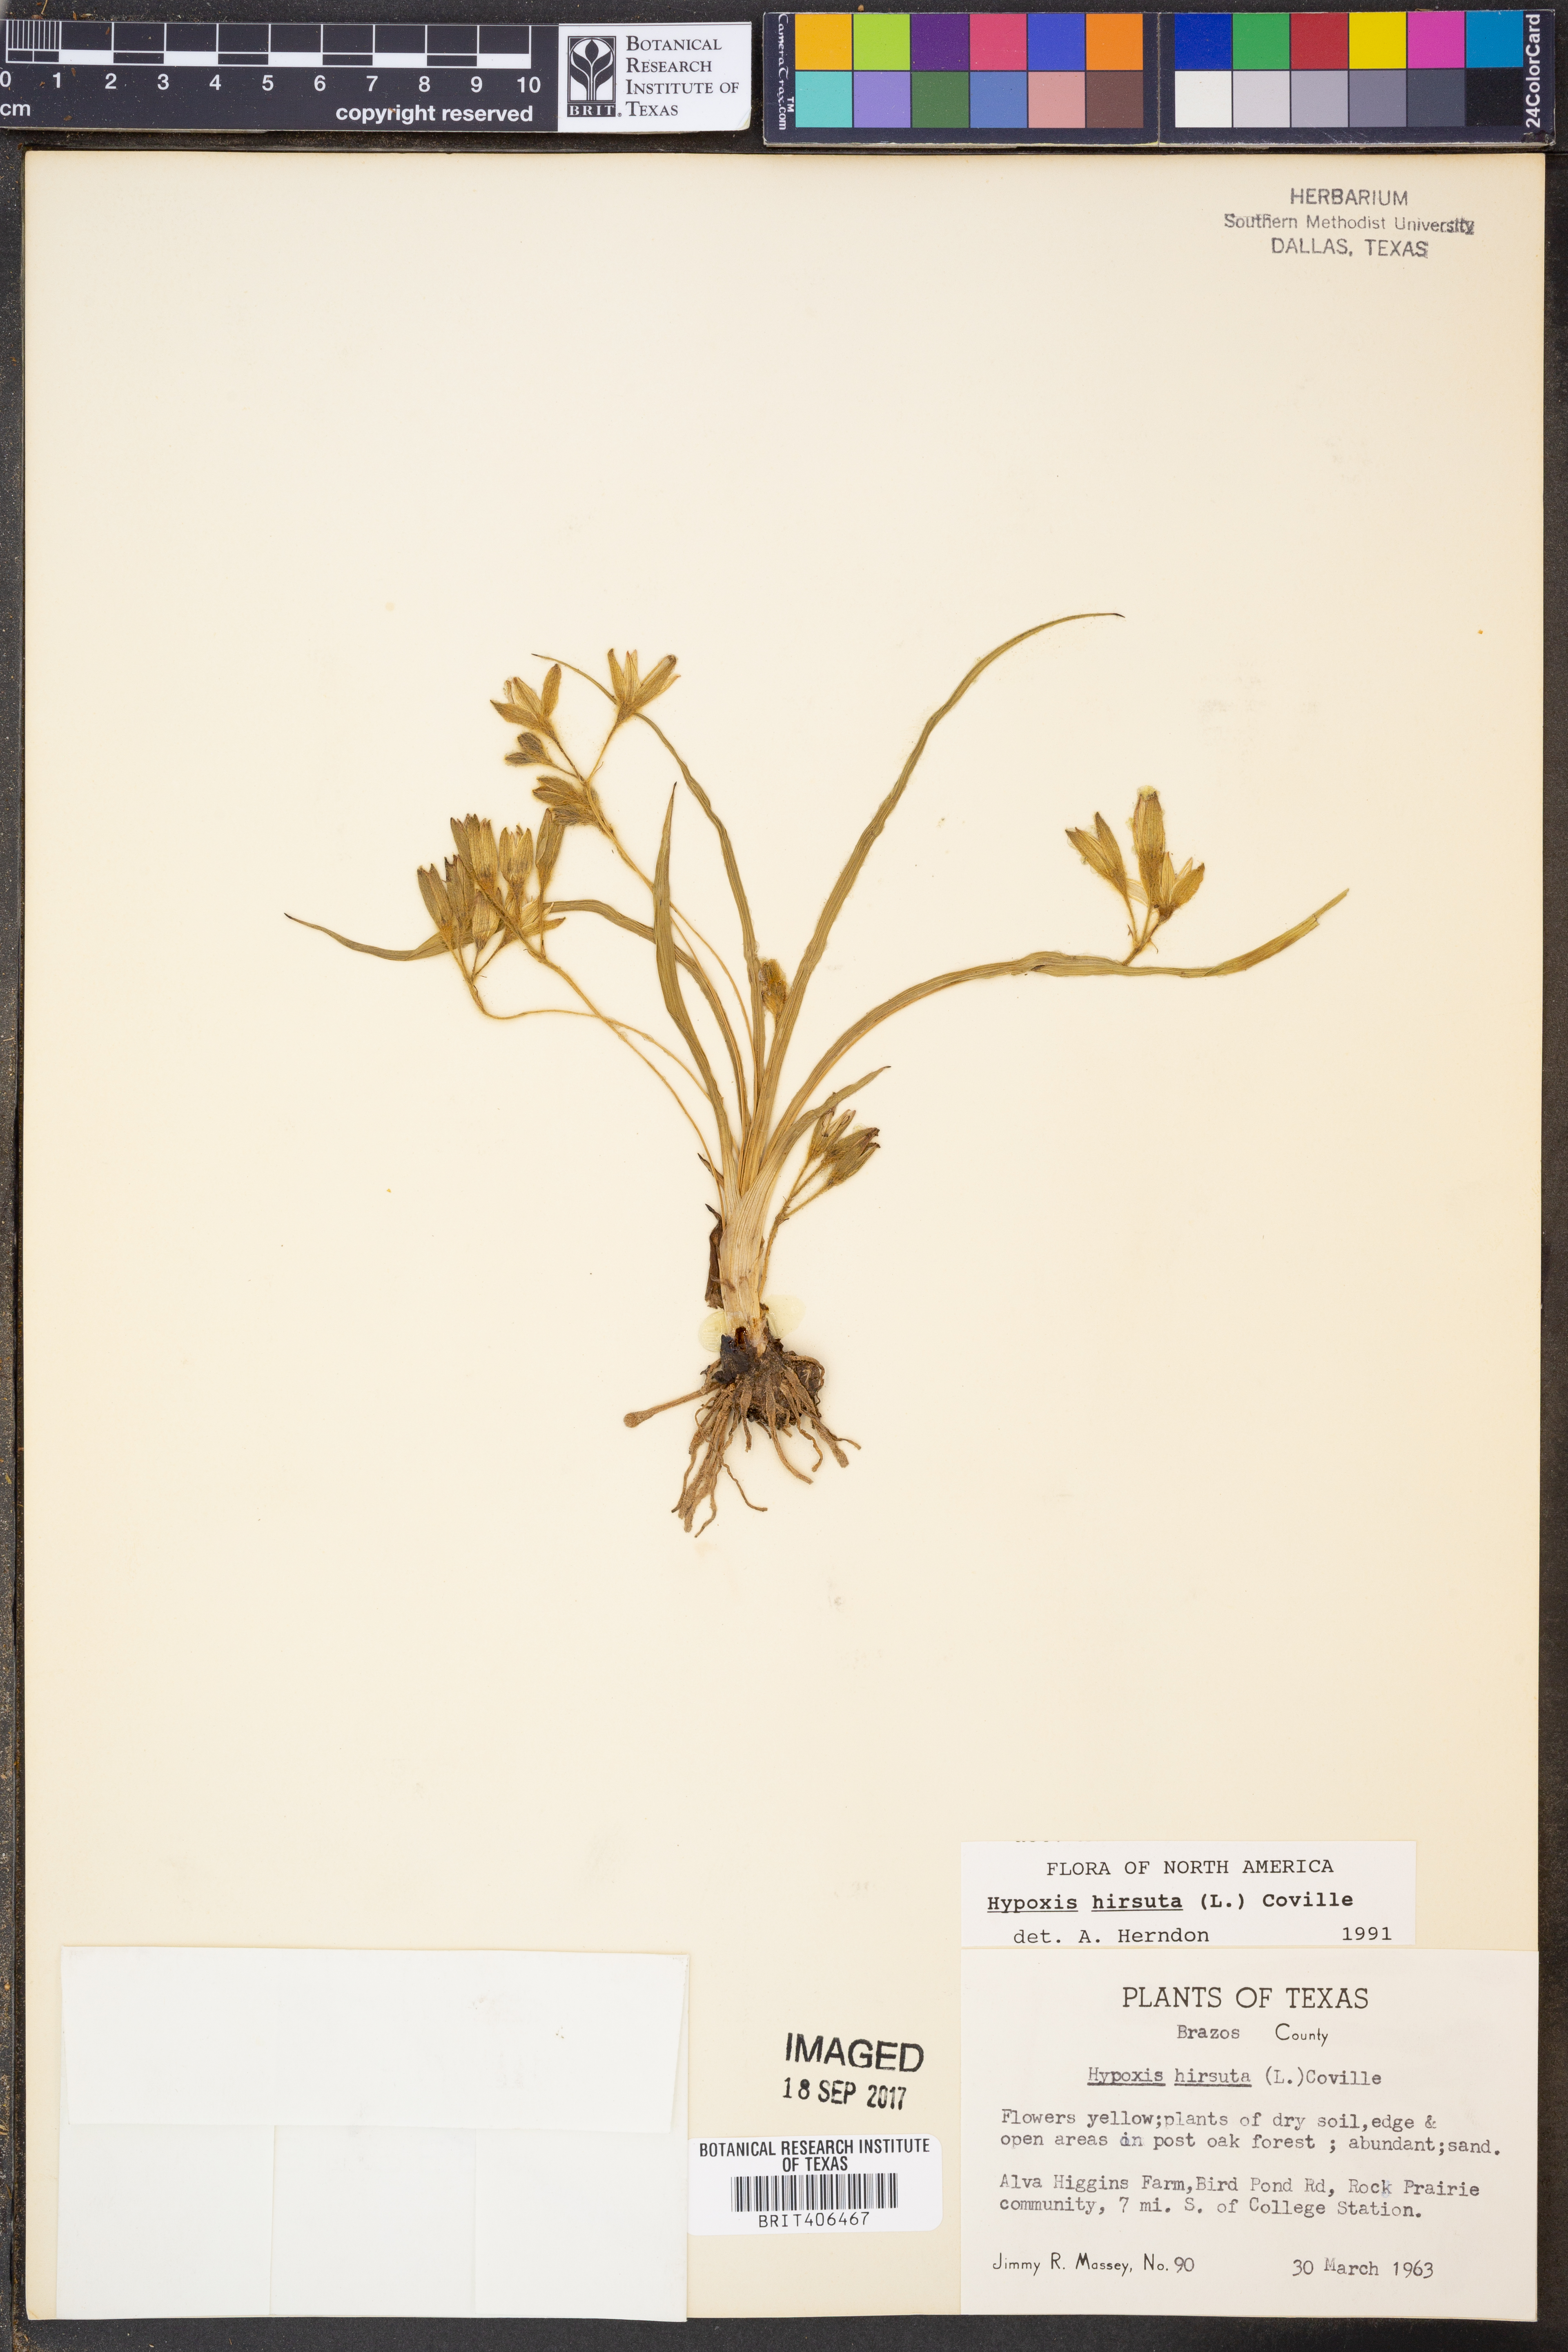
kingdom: Plantae
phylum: Tracheophyta
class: Liliopsida
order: Asparagales
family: Hypoxidaceae
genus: Hypoxis
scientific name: Hypoxis hirsuta
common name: Common goldstar
